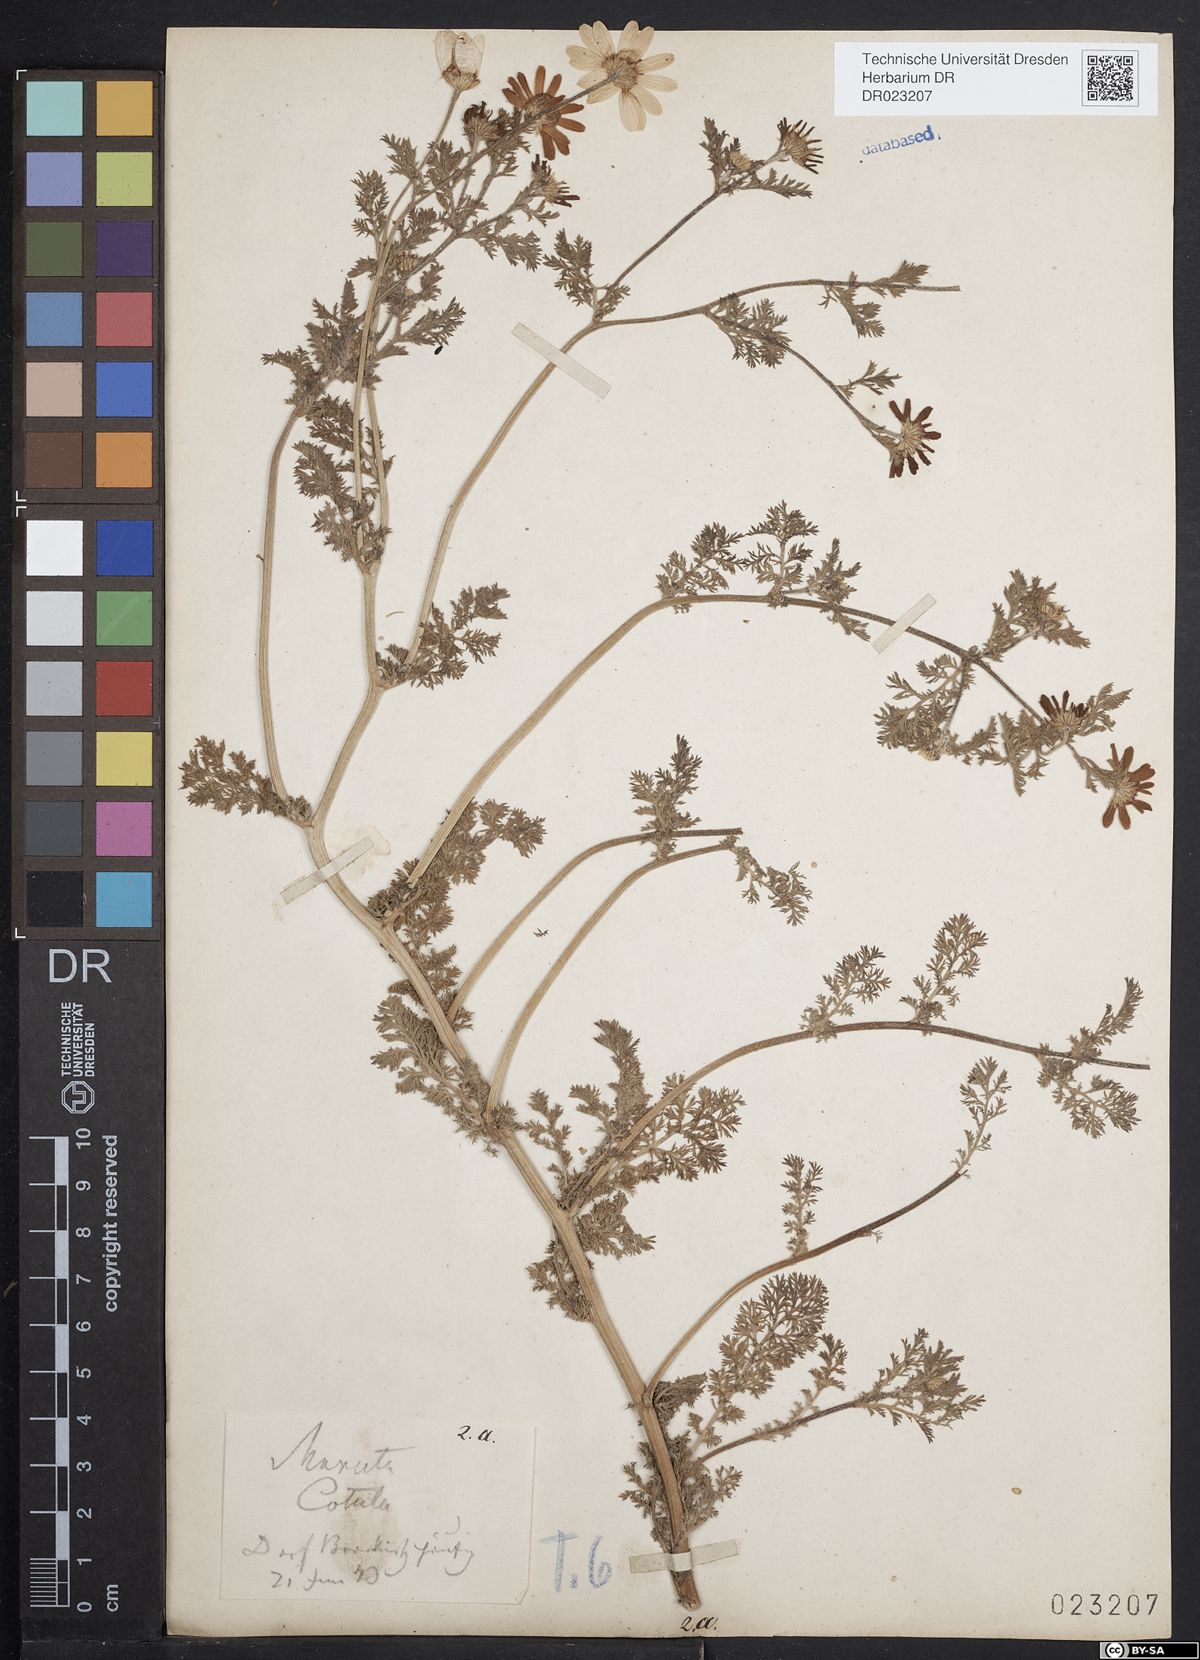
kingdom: Plantae
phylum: Tracheophyta
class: Magnoliopsida
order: Asterales
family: Asteraceae
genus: Anthemis
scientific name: Anthemis cotula
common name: Stinking chamomile
